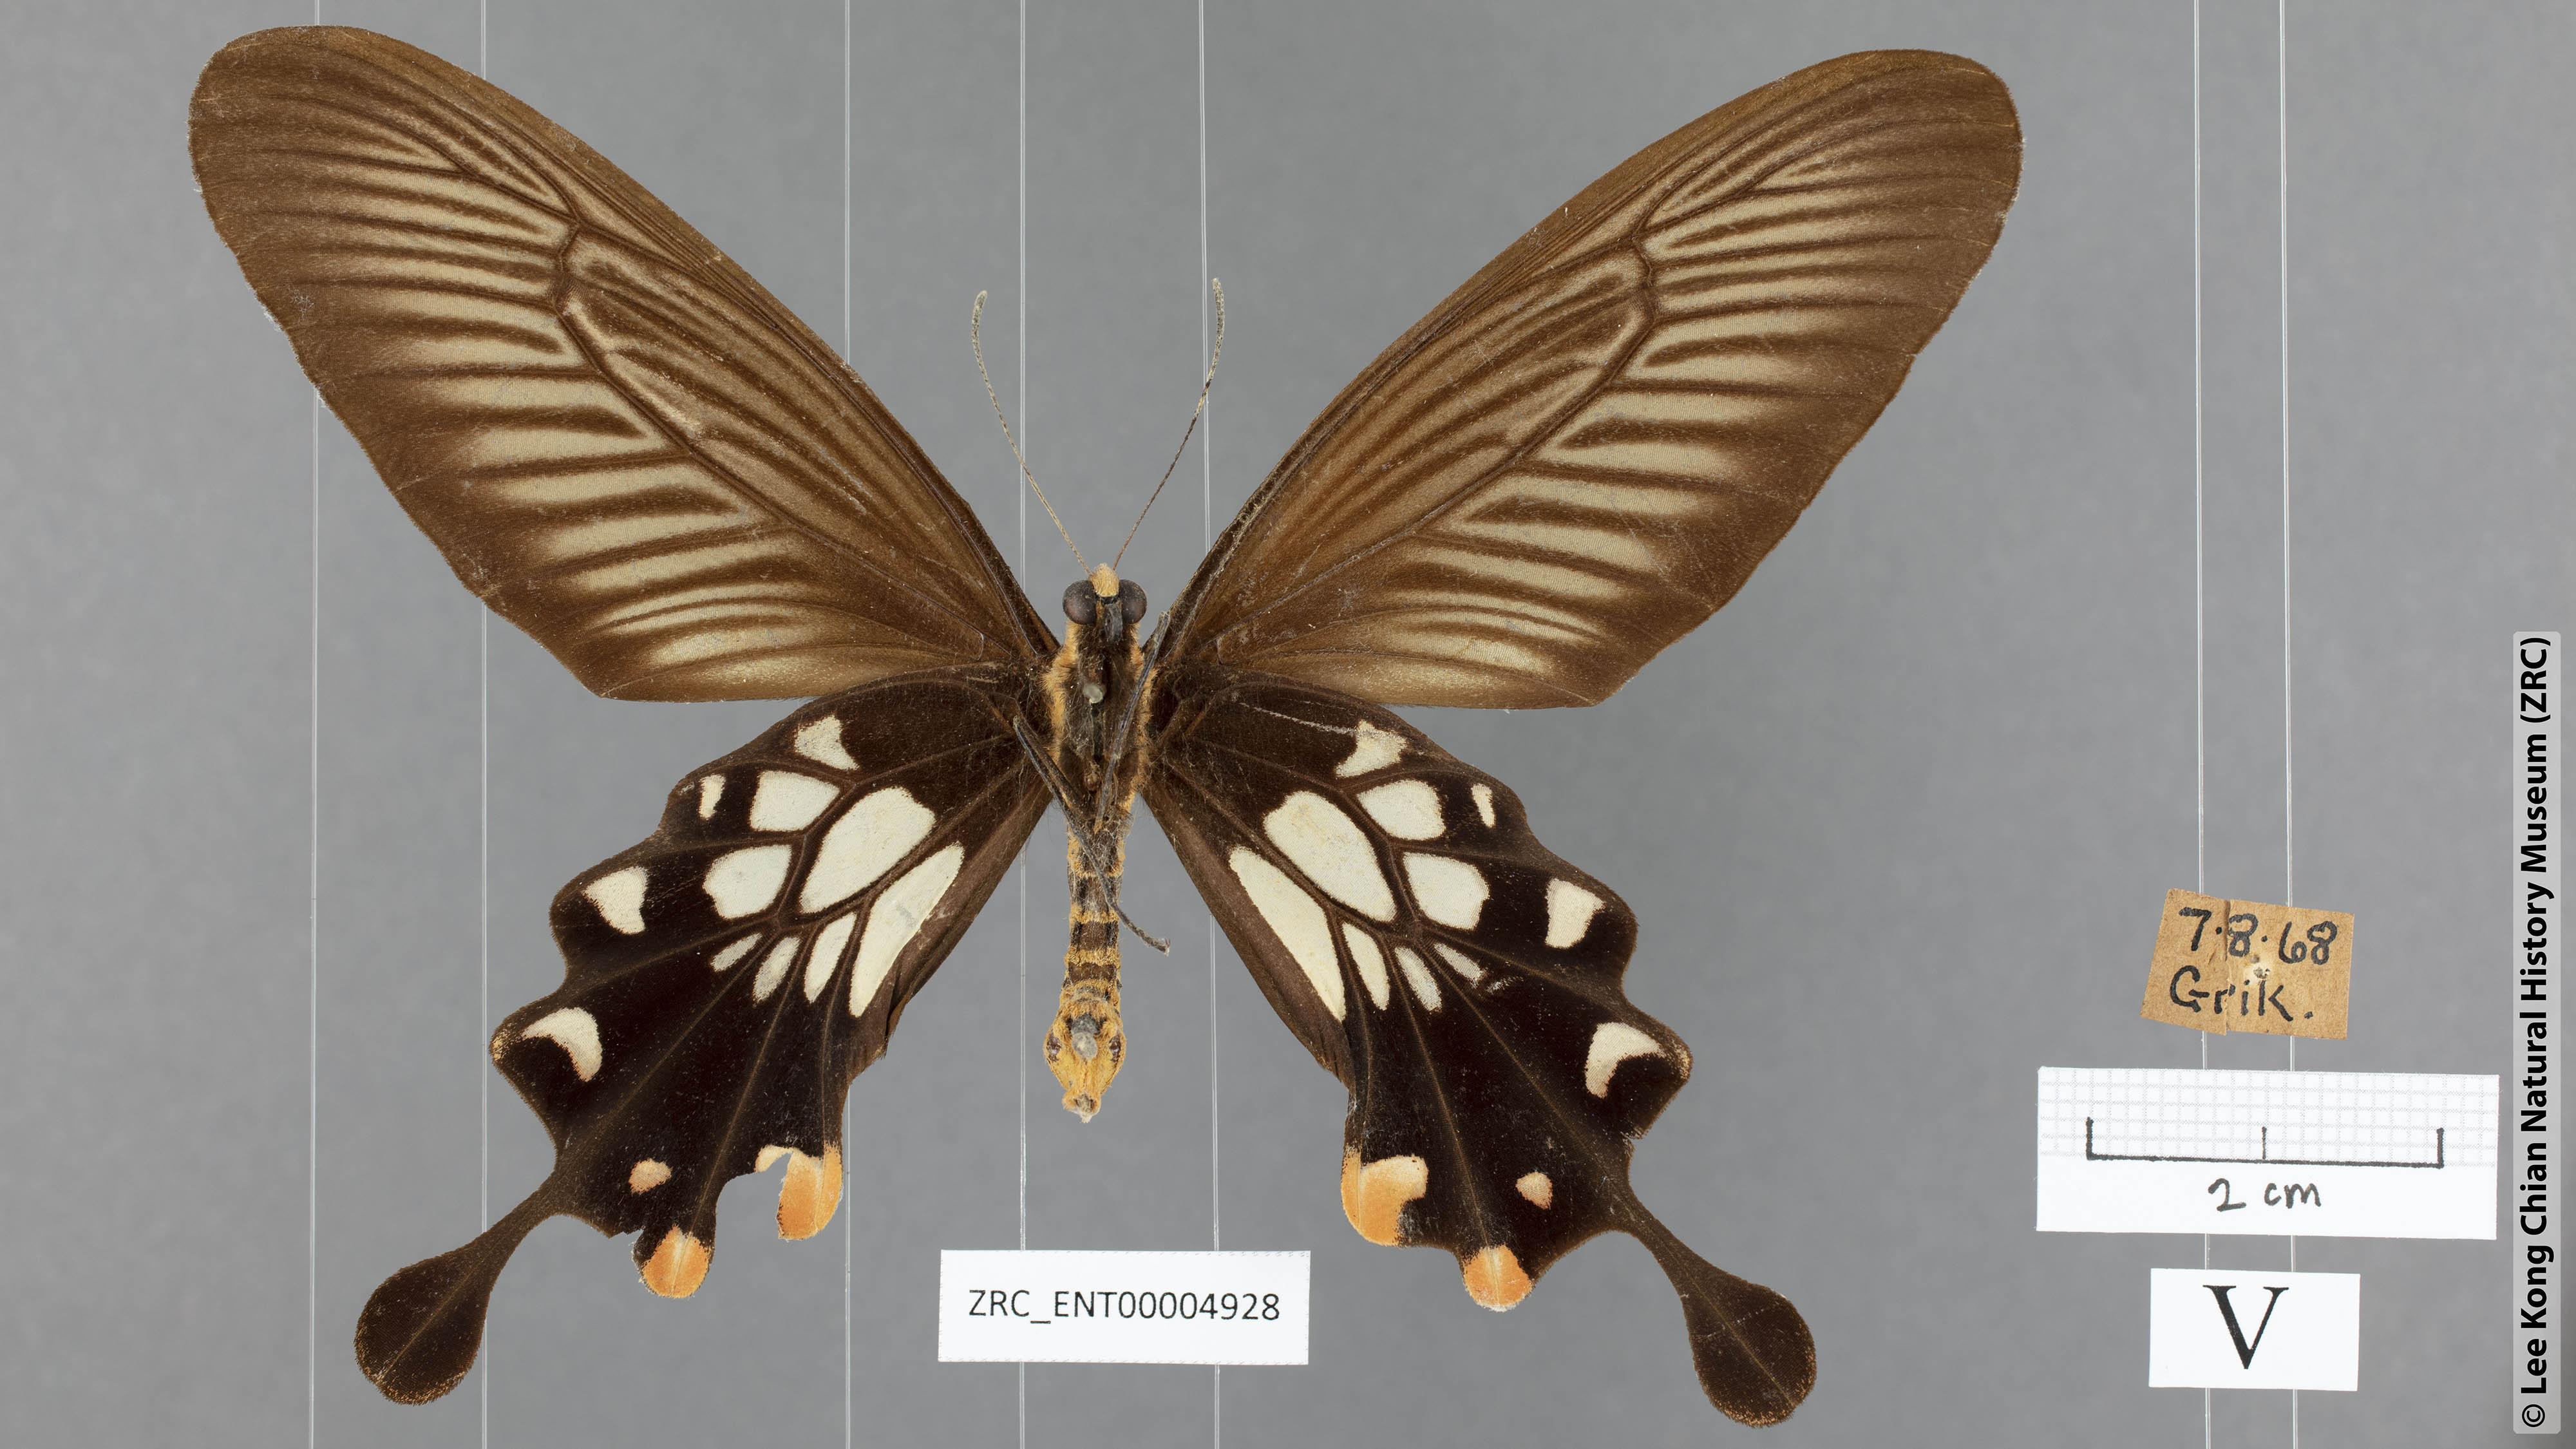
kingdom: Animalia
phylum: Arthropoda
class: Insecta
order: Lepidoptera
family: Papilionidae
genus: Losaria
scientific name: Losaria coon
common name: Common clubtail
